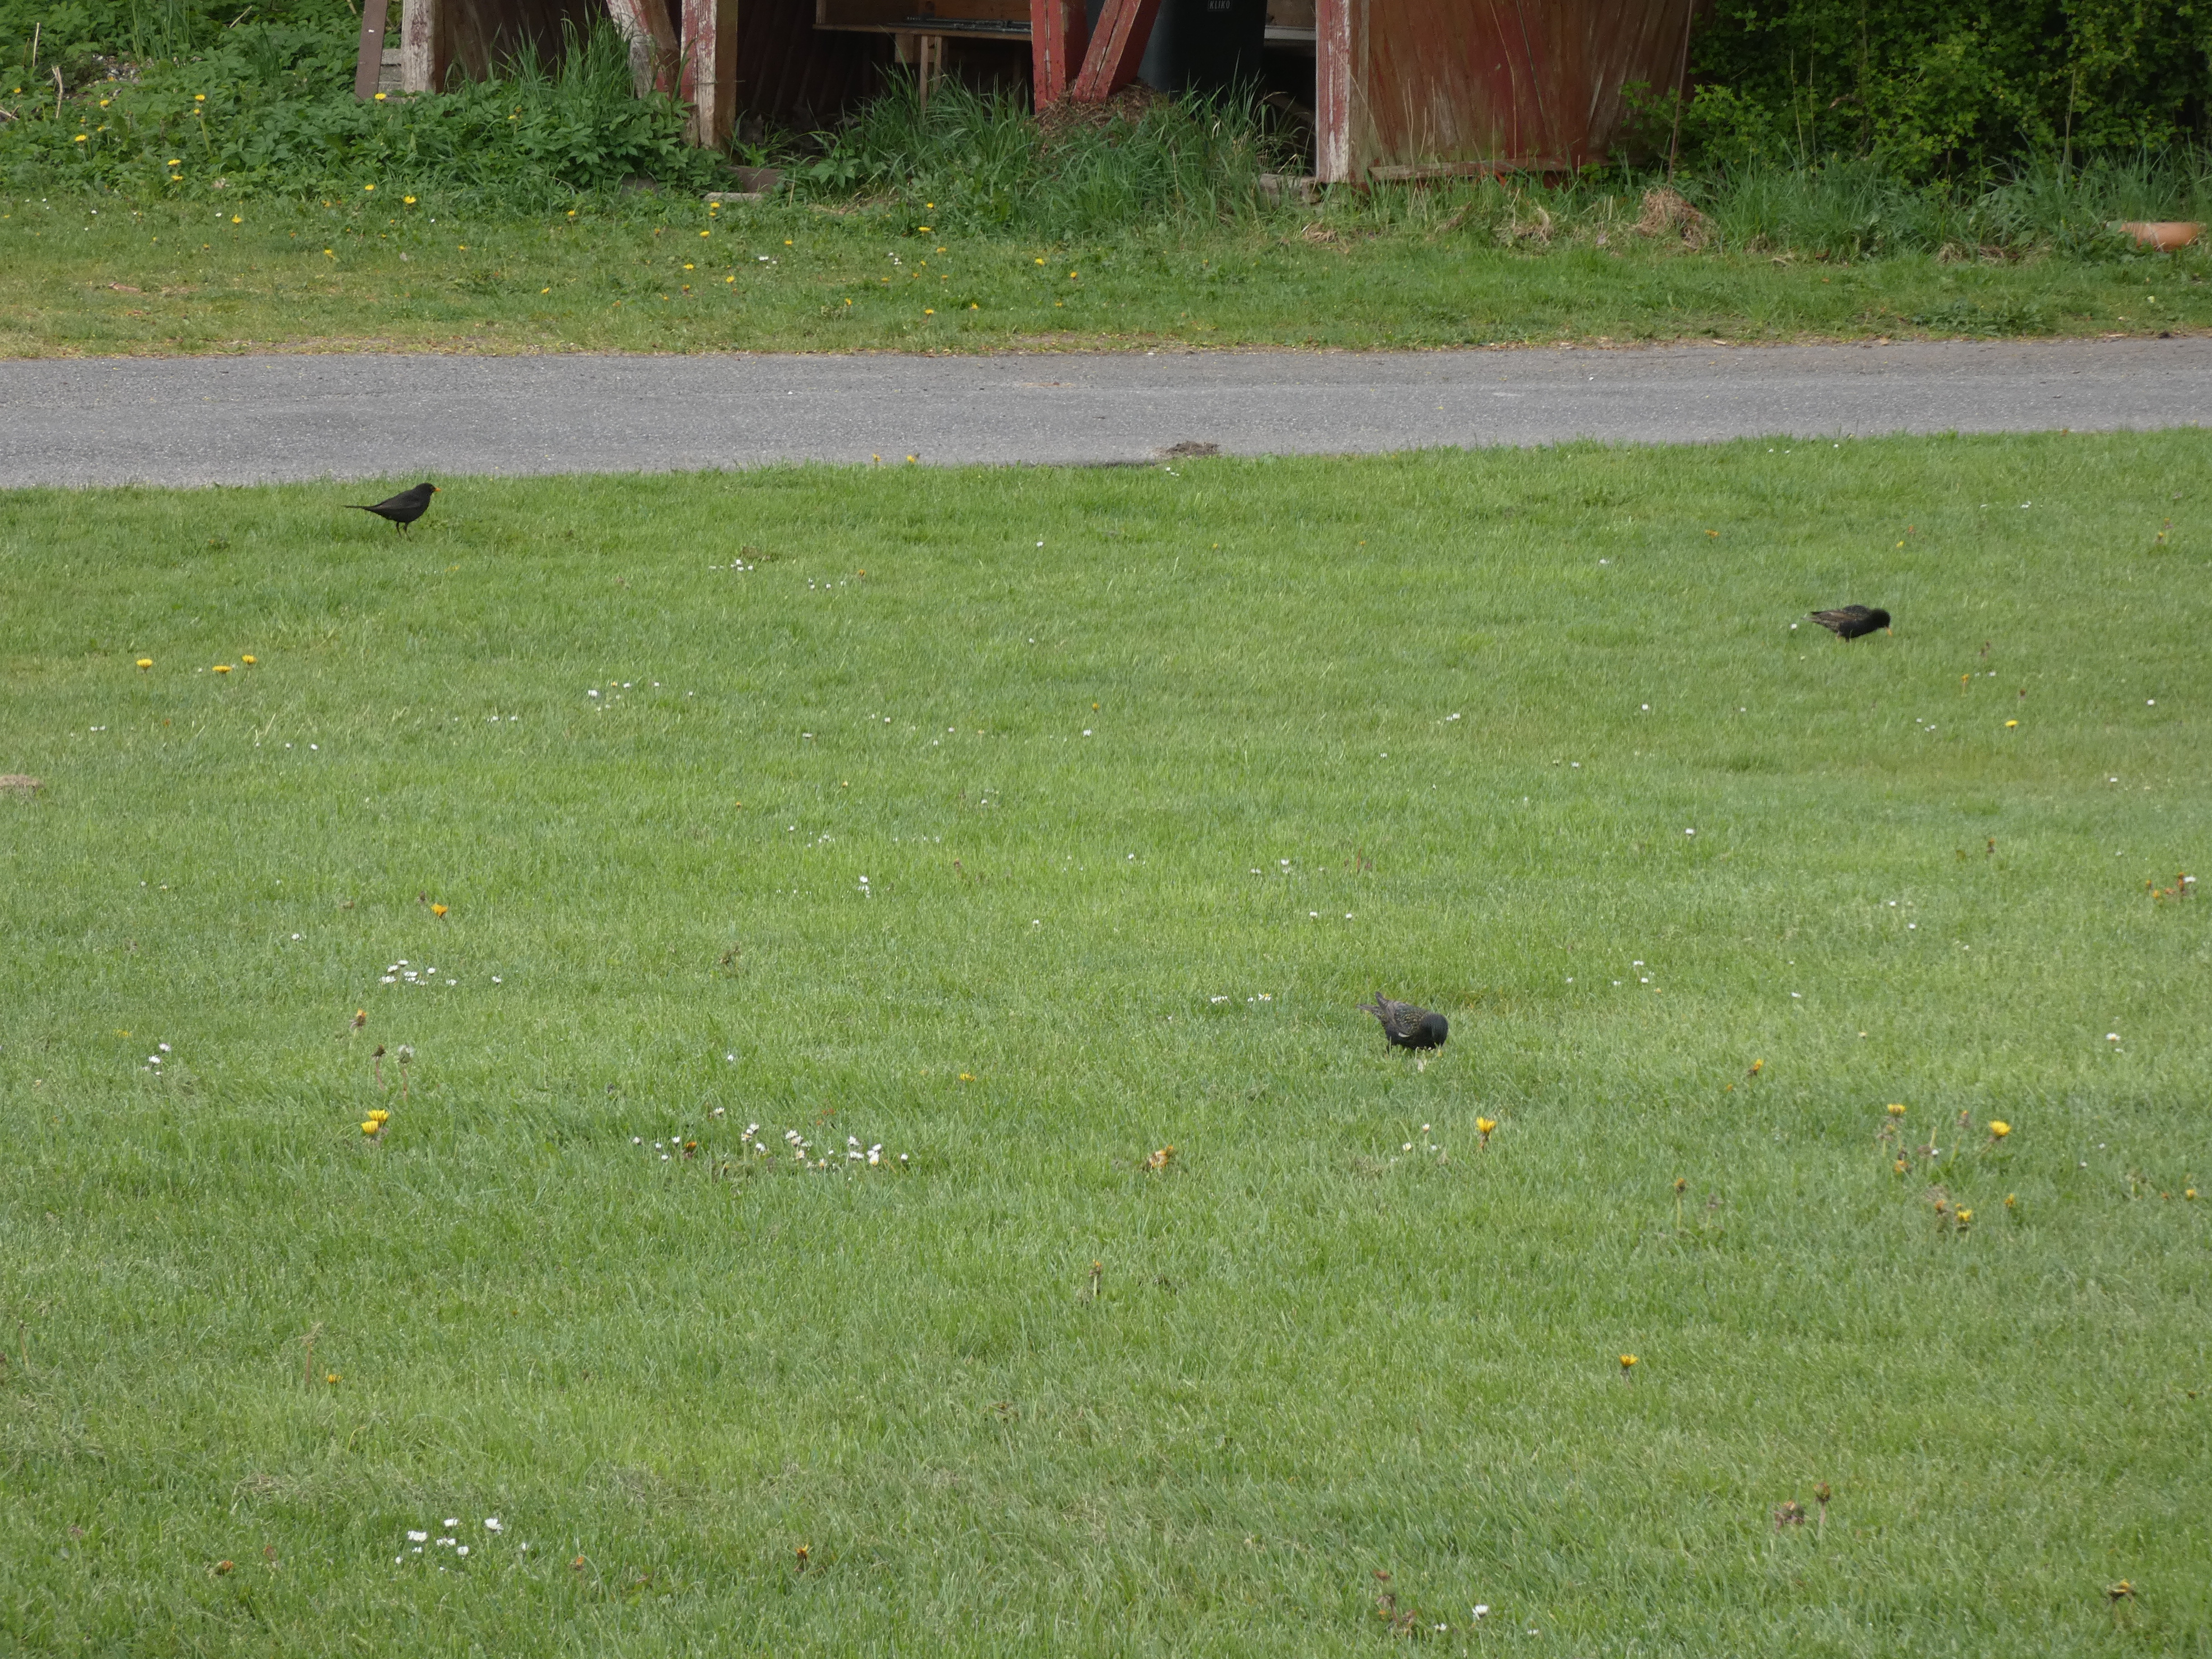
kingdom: Animalia
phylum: Chordata
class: Aves
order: Passeriformes
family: Sturnidae
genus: Sturnus
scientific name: Sturnus vulgaris
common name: Stær
